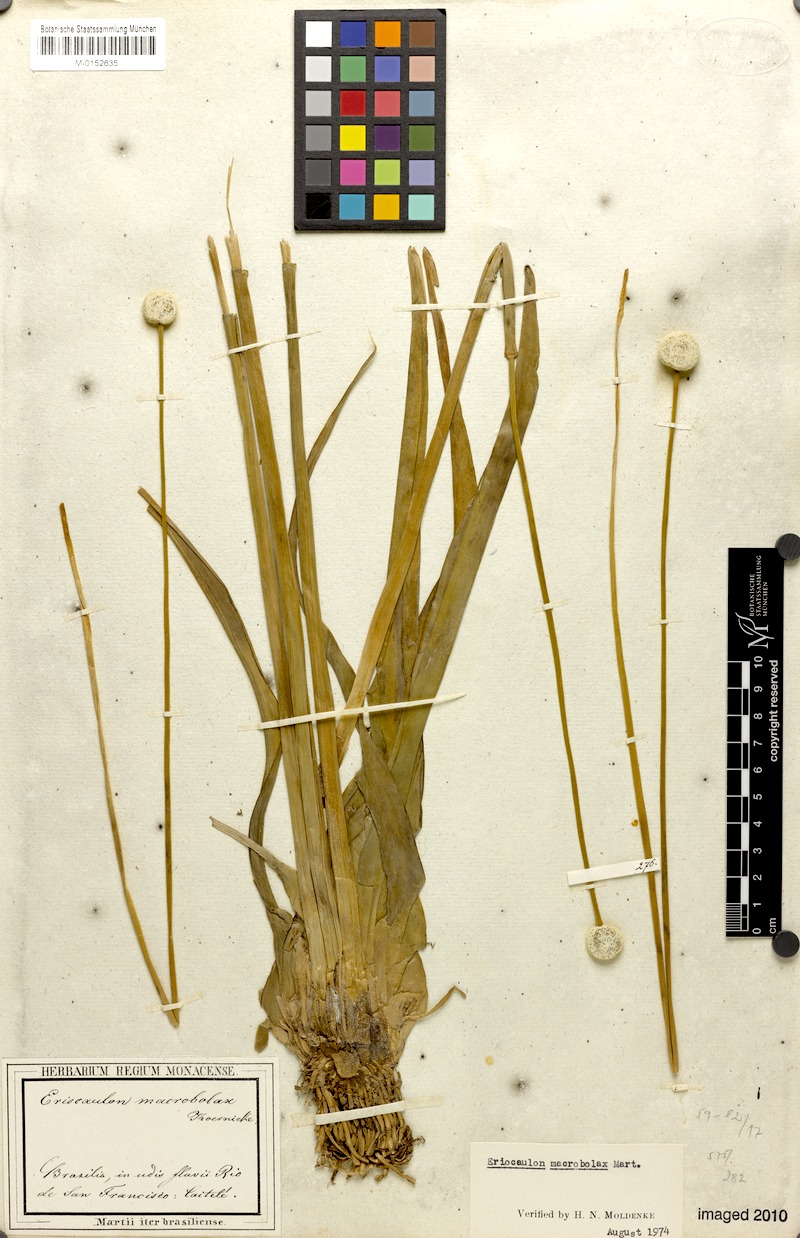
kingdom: Plantae
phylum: Tracheophyta
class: Liliopsida
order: Poales
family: Eriocaulaceae
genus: Eriocaulon
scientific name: Eriocaulon macrobolax
